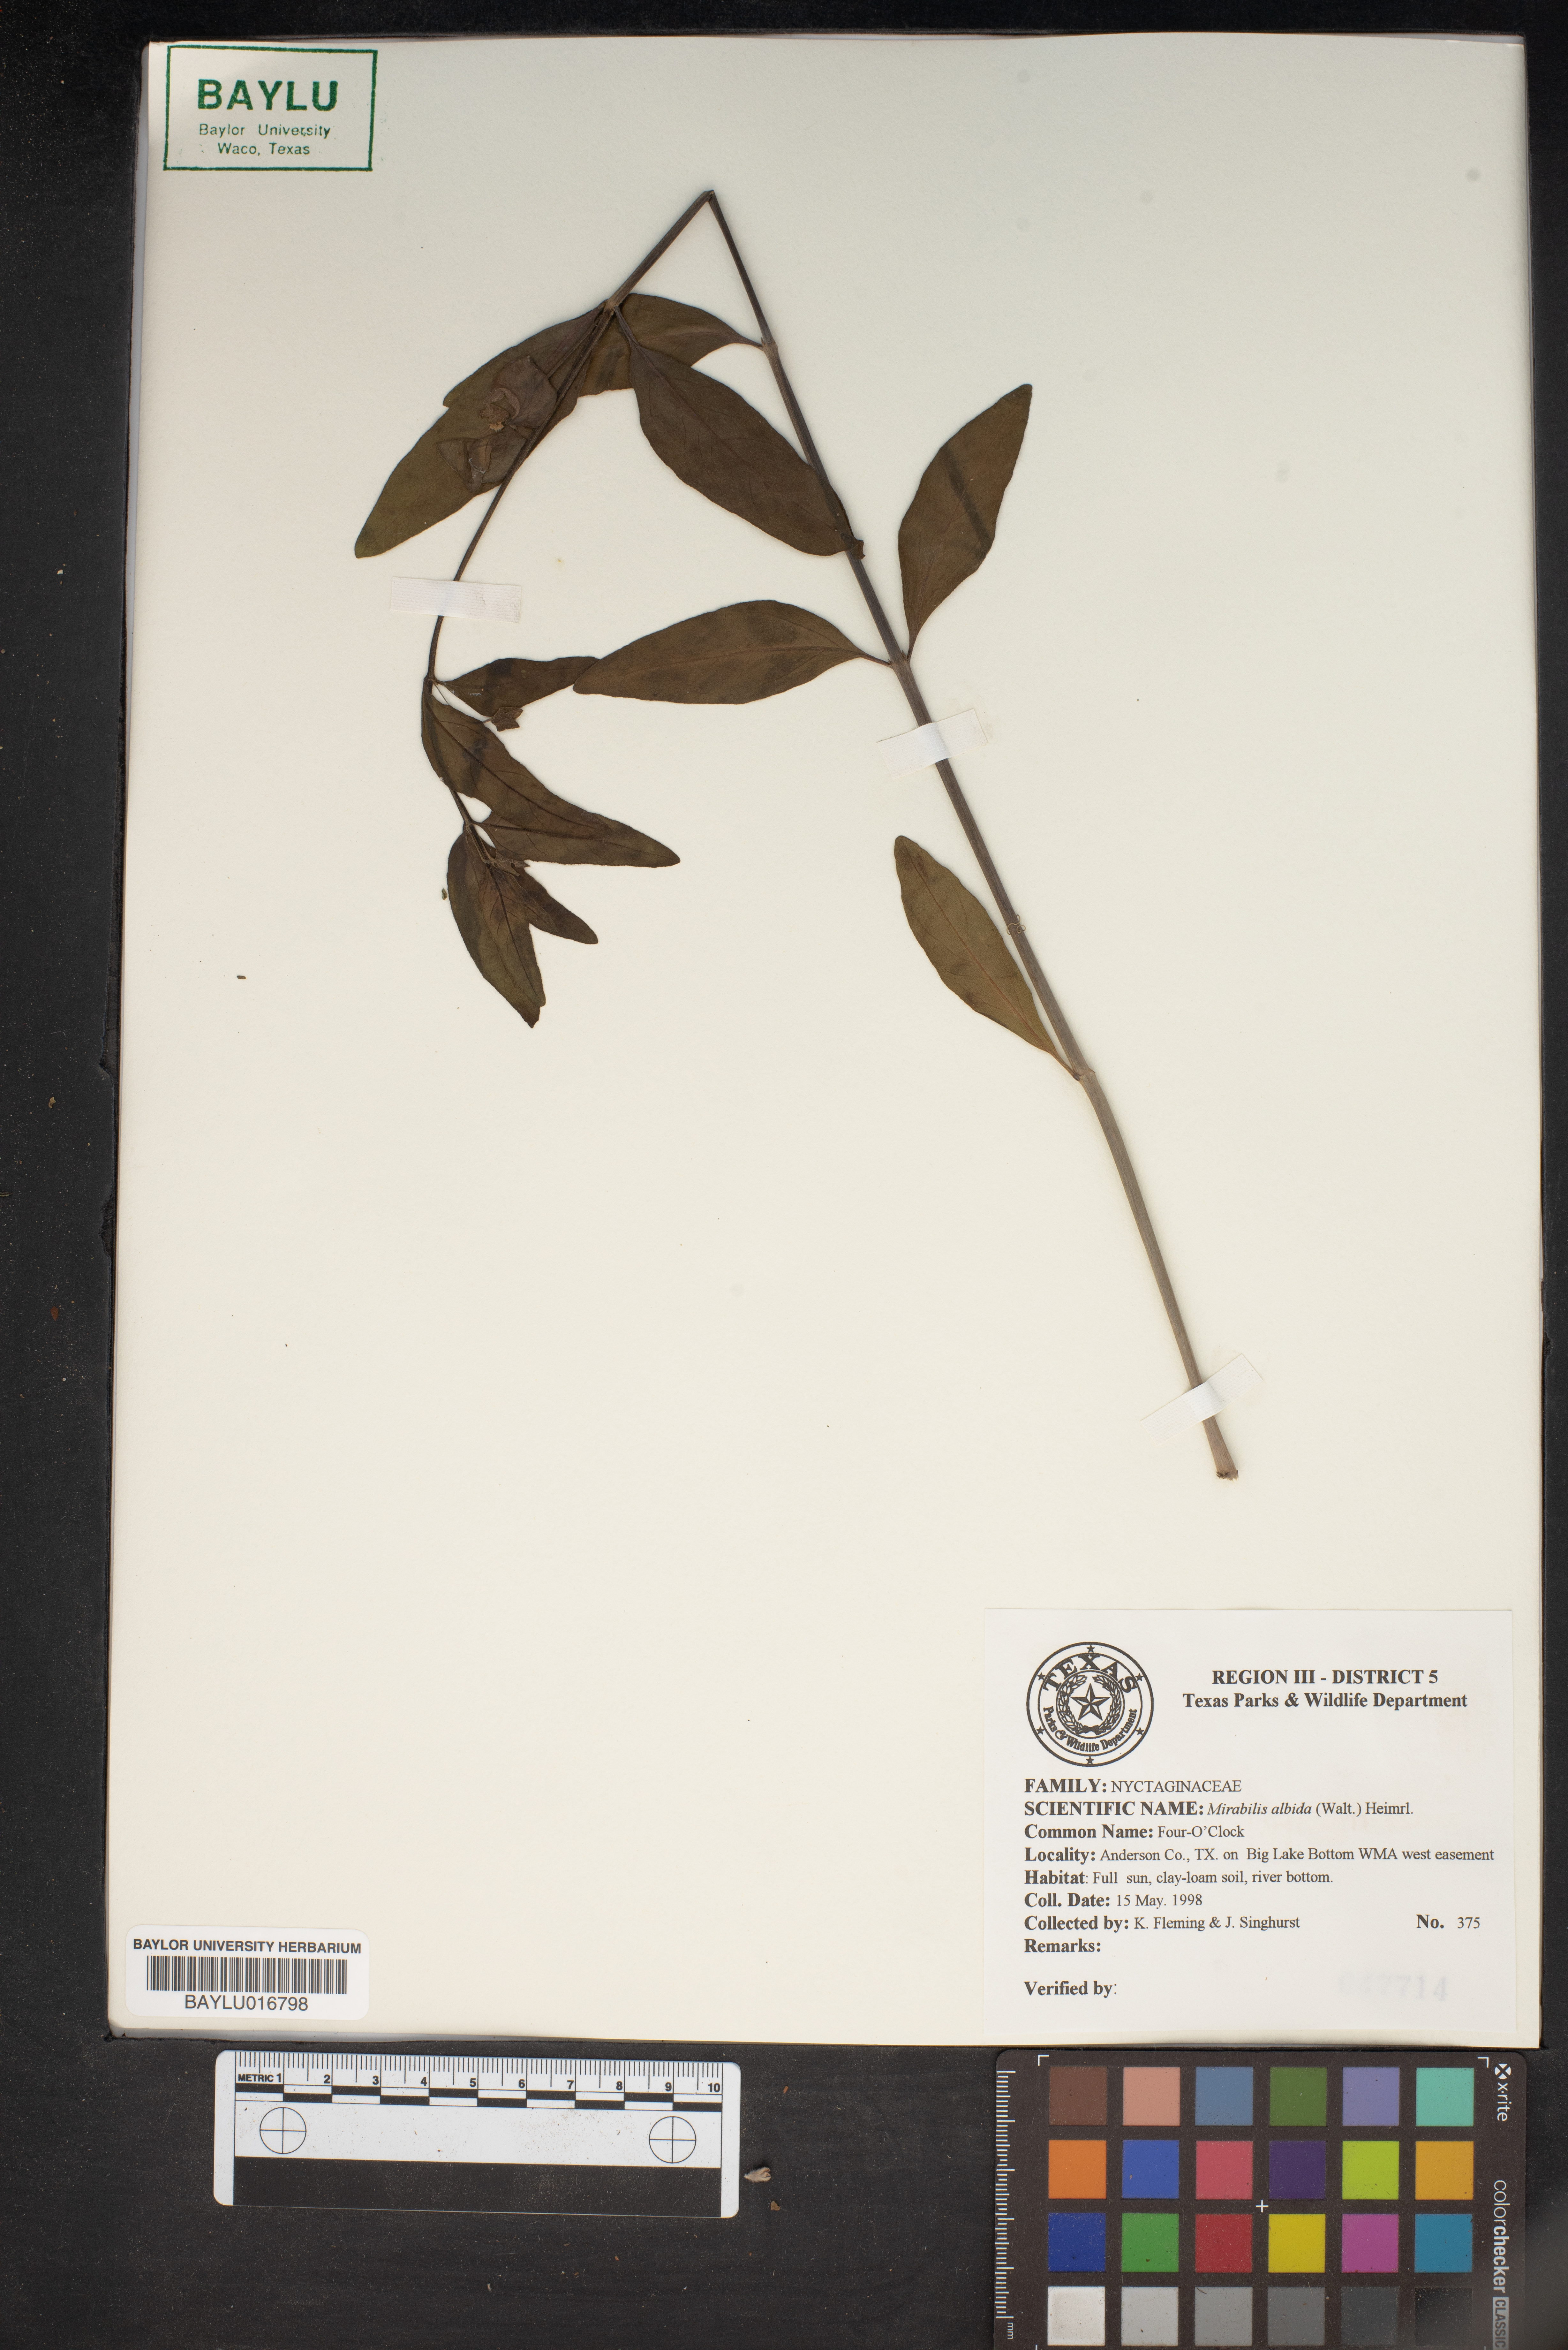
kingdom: Plantae
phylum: Tracheophyta
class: Magnoliopsida
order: Caryophyllales
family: Nyctaginaceae
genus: Mirabilis
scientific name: Mirabilis albida
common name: Hairy four-o'clock
